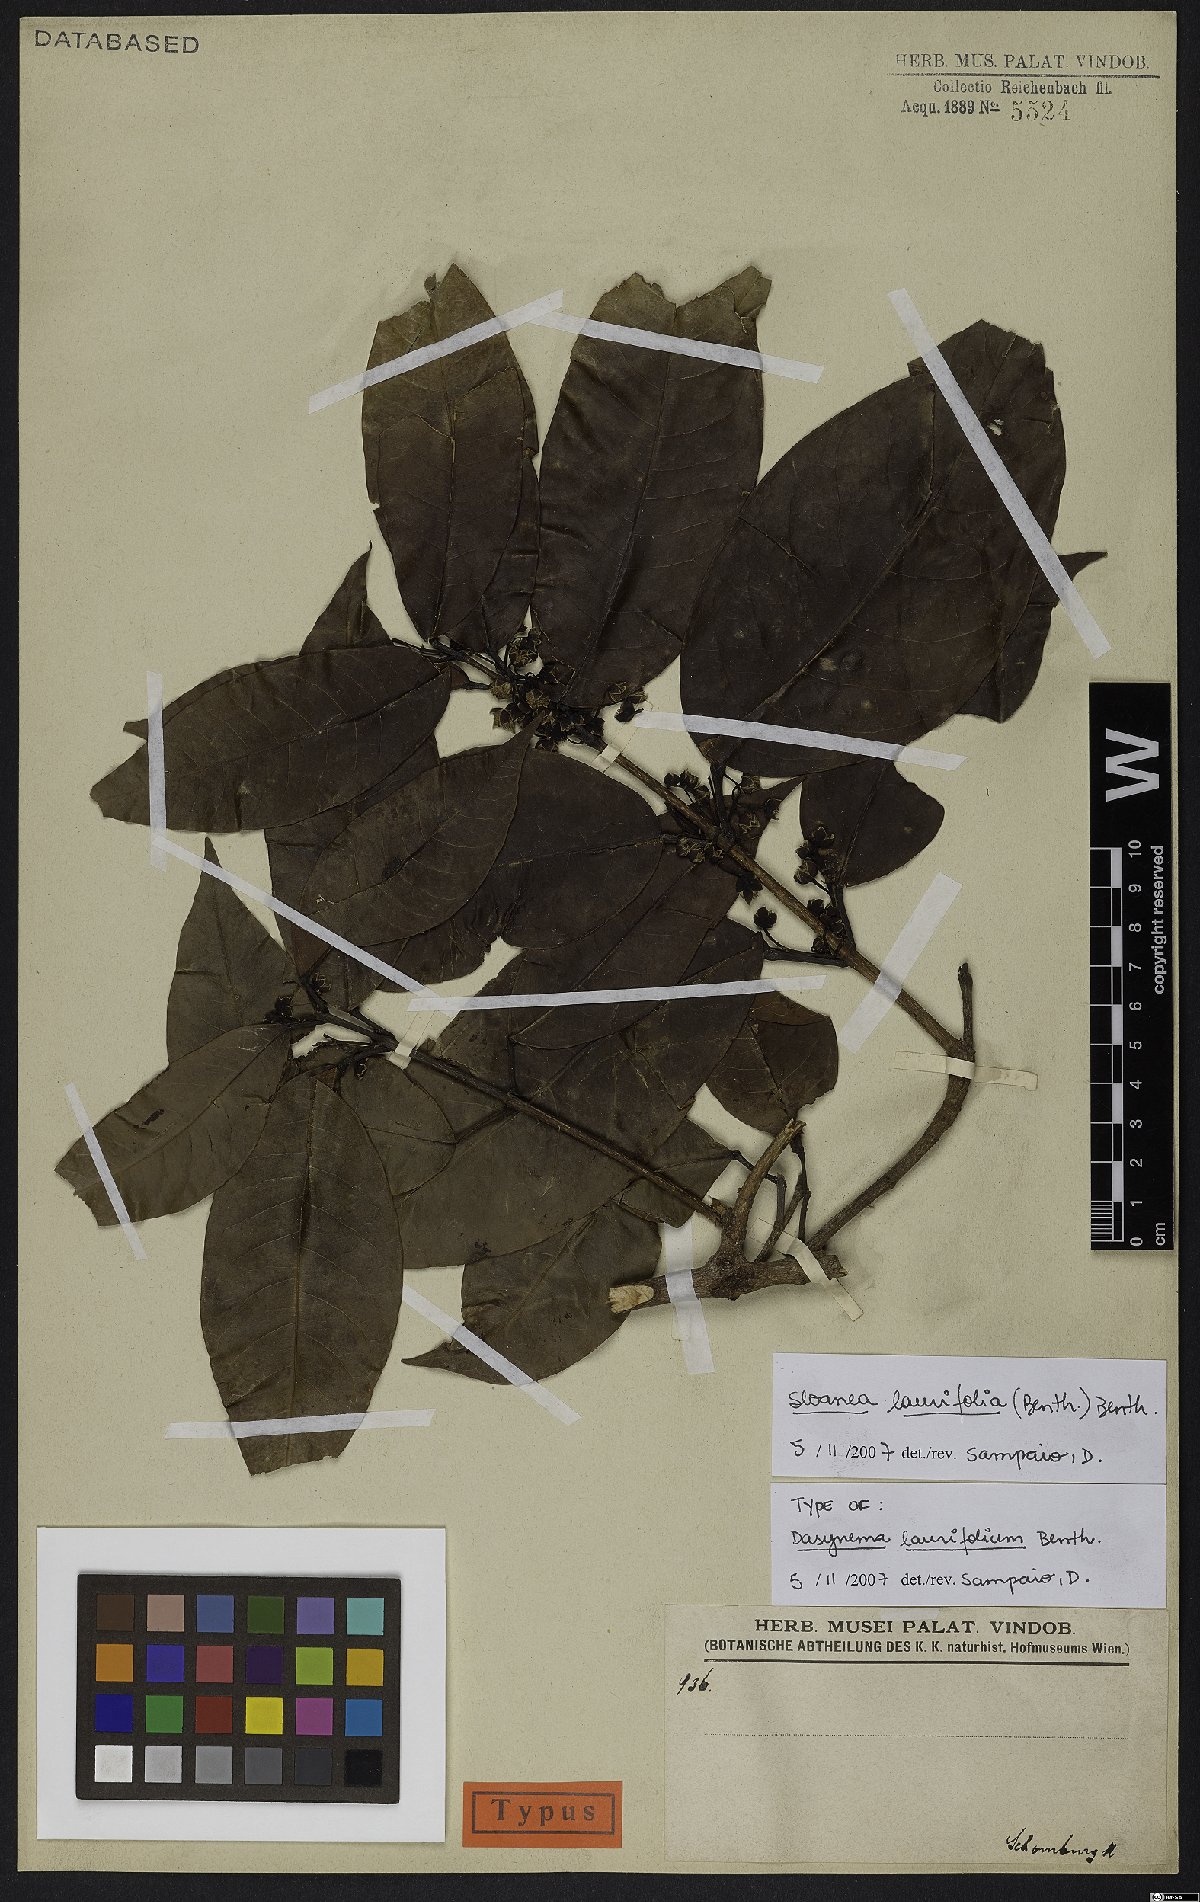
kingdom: Plantae
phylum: Tracheophyta
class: Magnoliopsida
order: Oxalidales
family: Elaeocarpaceae
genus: Sloanea
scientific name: Sloanea laurifolia
